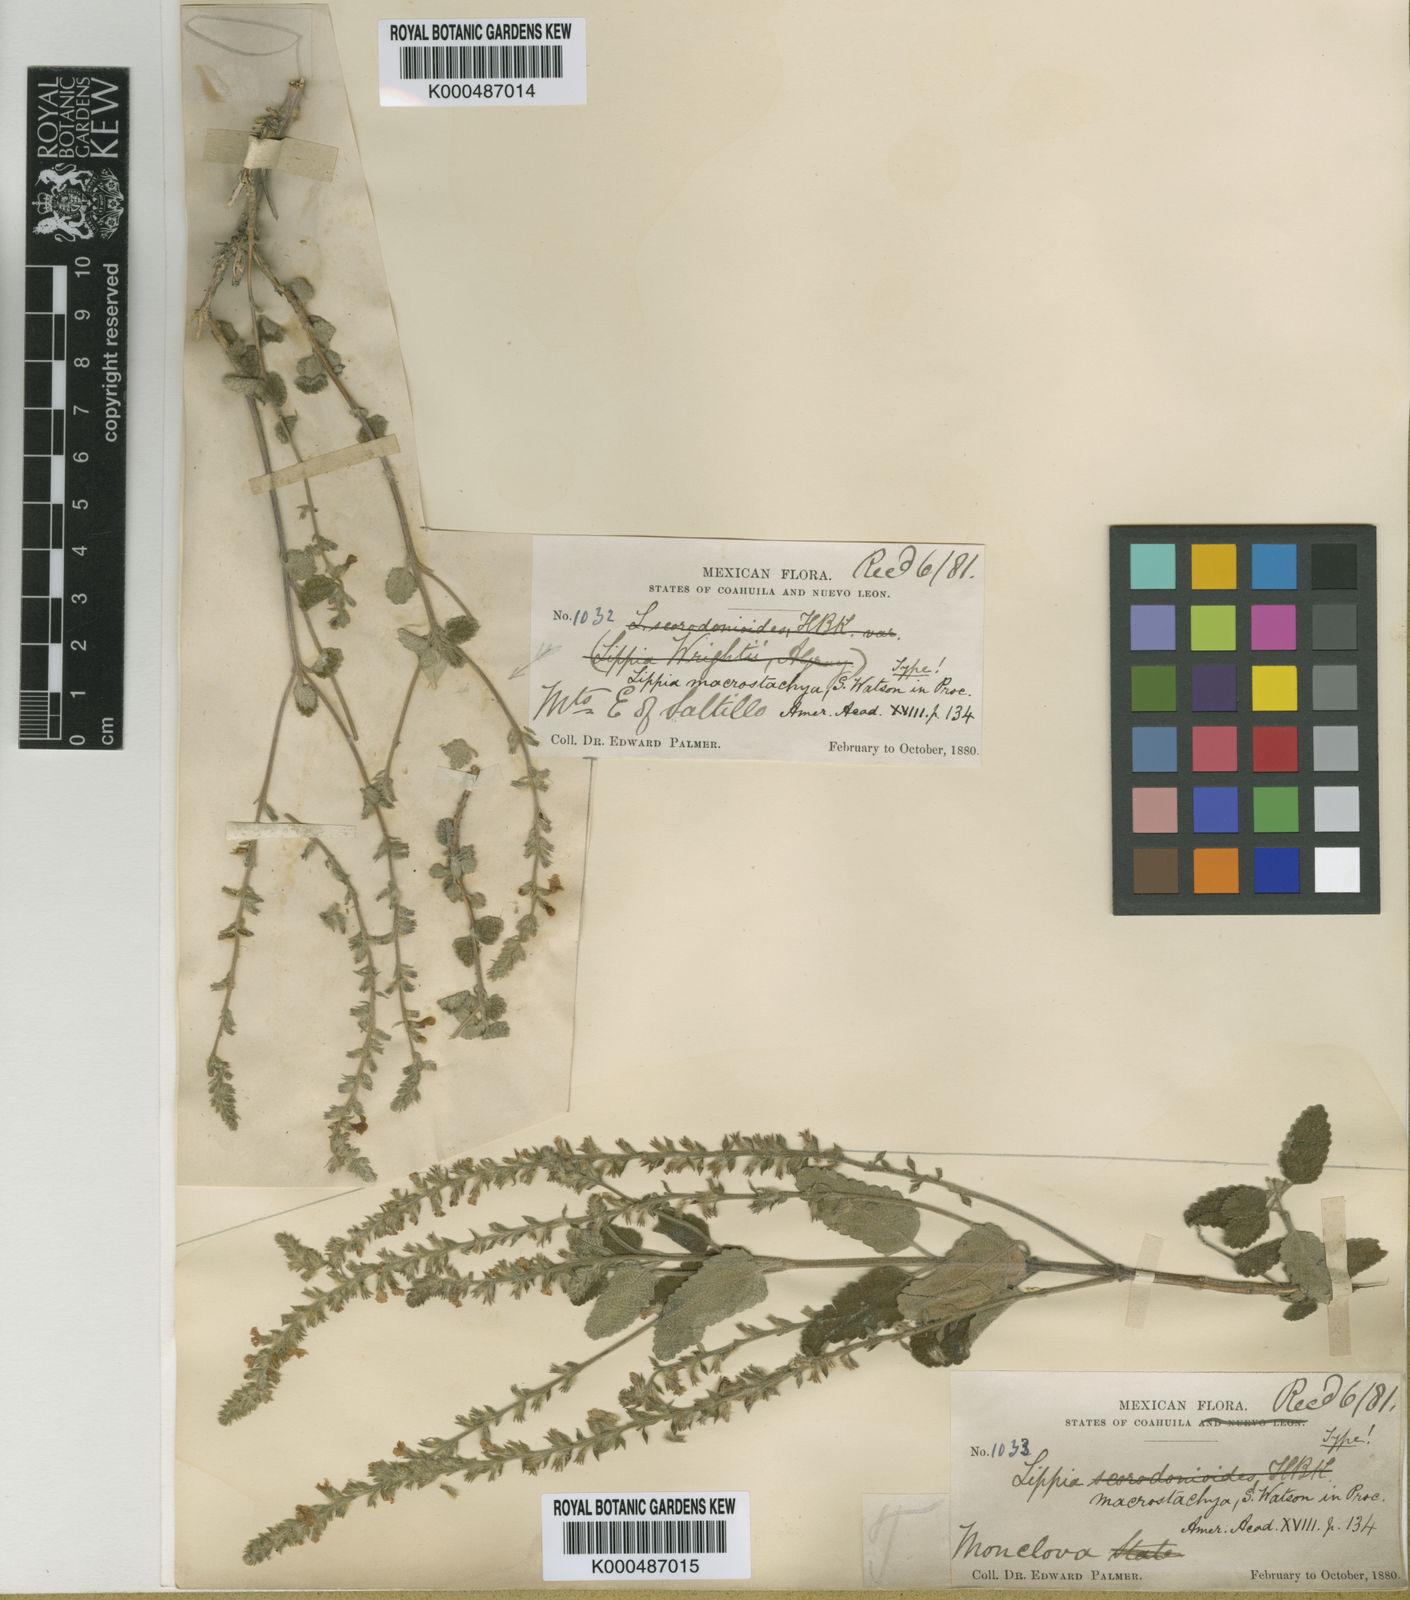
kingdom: Plantae
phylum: Tracheophyta
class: Magnoliopsida
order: Lamiales
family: Verbenaceae
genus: Aloysia
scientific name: Aloysia macrostachya
